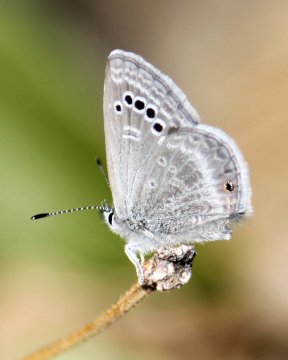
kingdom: Animalia
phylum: Arthropoda
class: Insecta
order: Lepidoptera
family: Lycaenidae
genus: Echinargus
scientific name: Echinargus isola
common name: Reakirt's Blue
